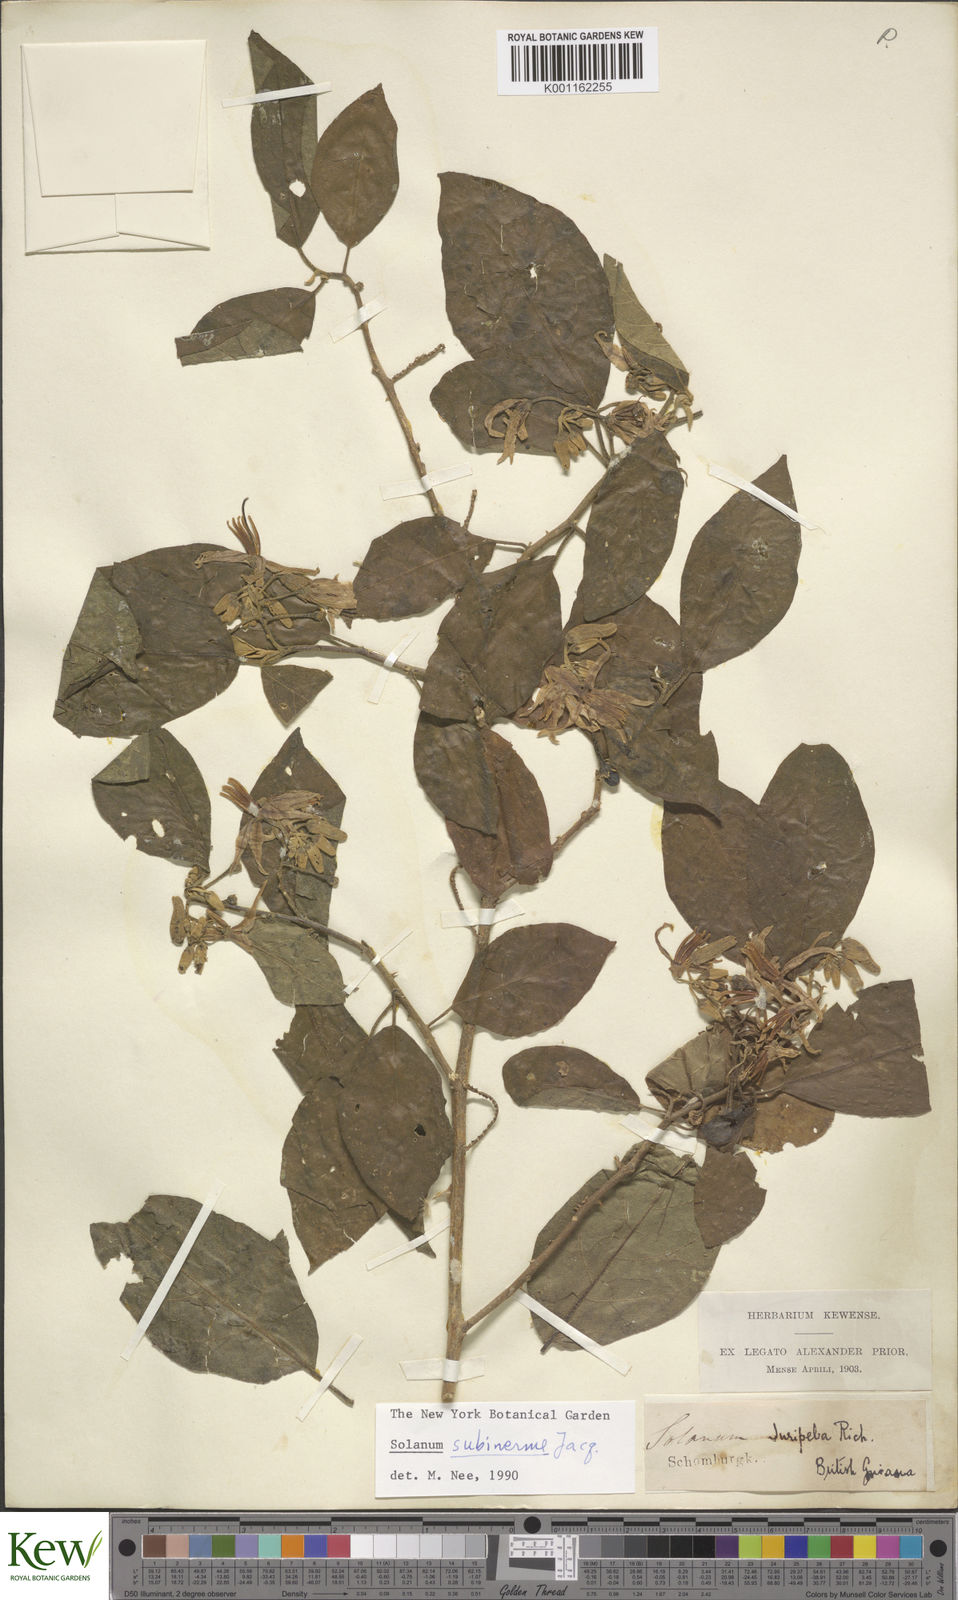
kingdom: Plantae
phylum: Tracheophyta
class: Magnoliopsida
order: Solanales
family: Solanaceae
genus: Solanum
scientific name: Solanum subinerme
